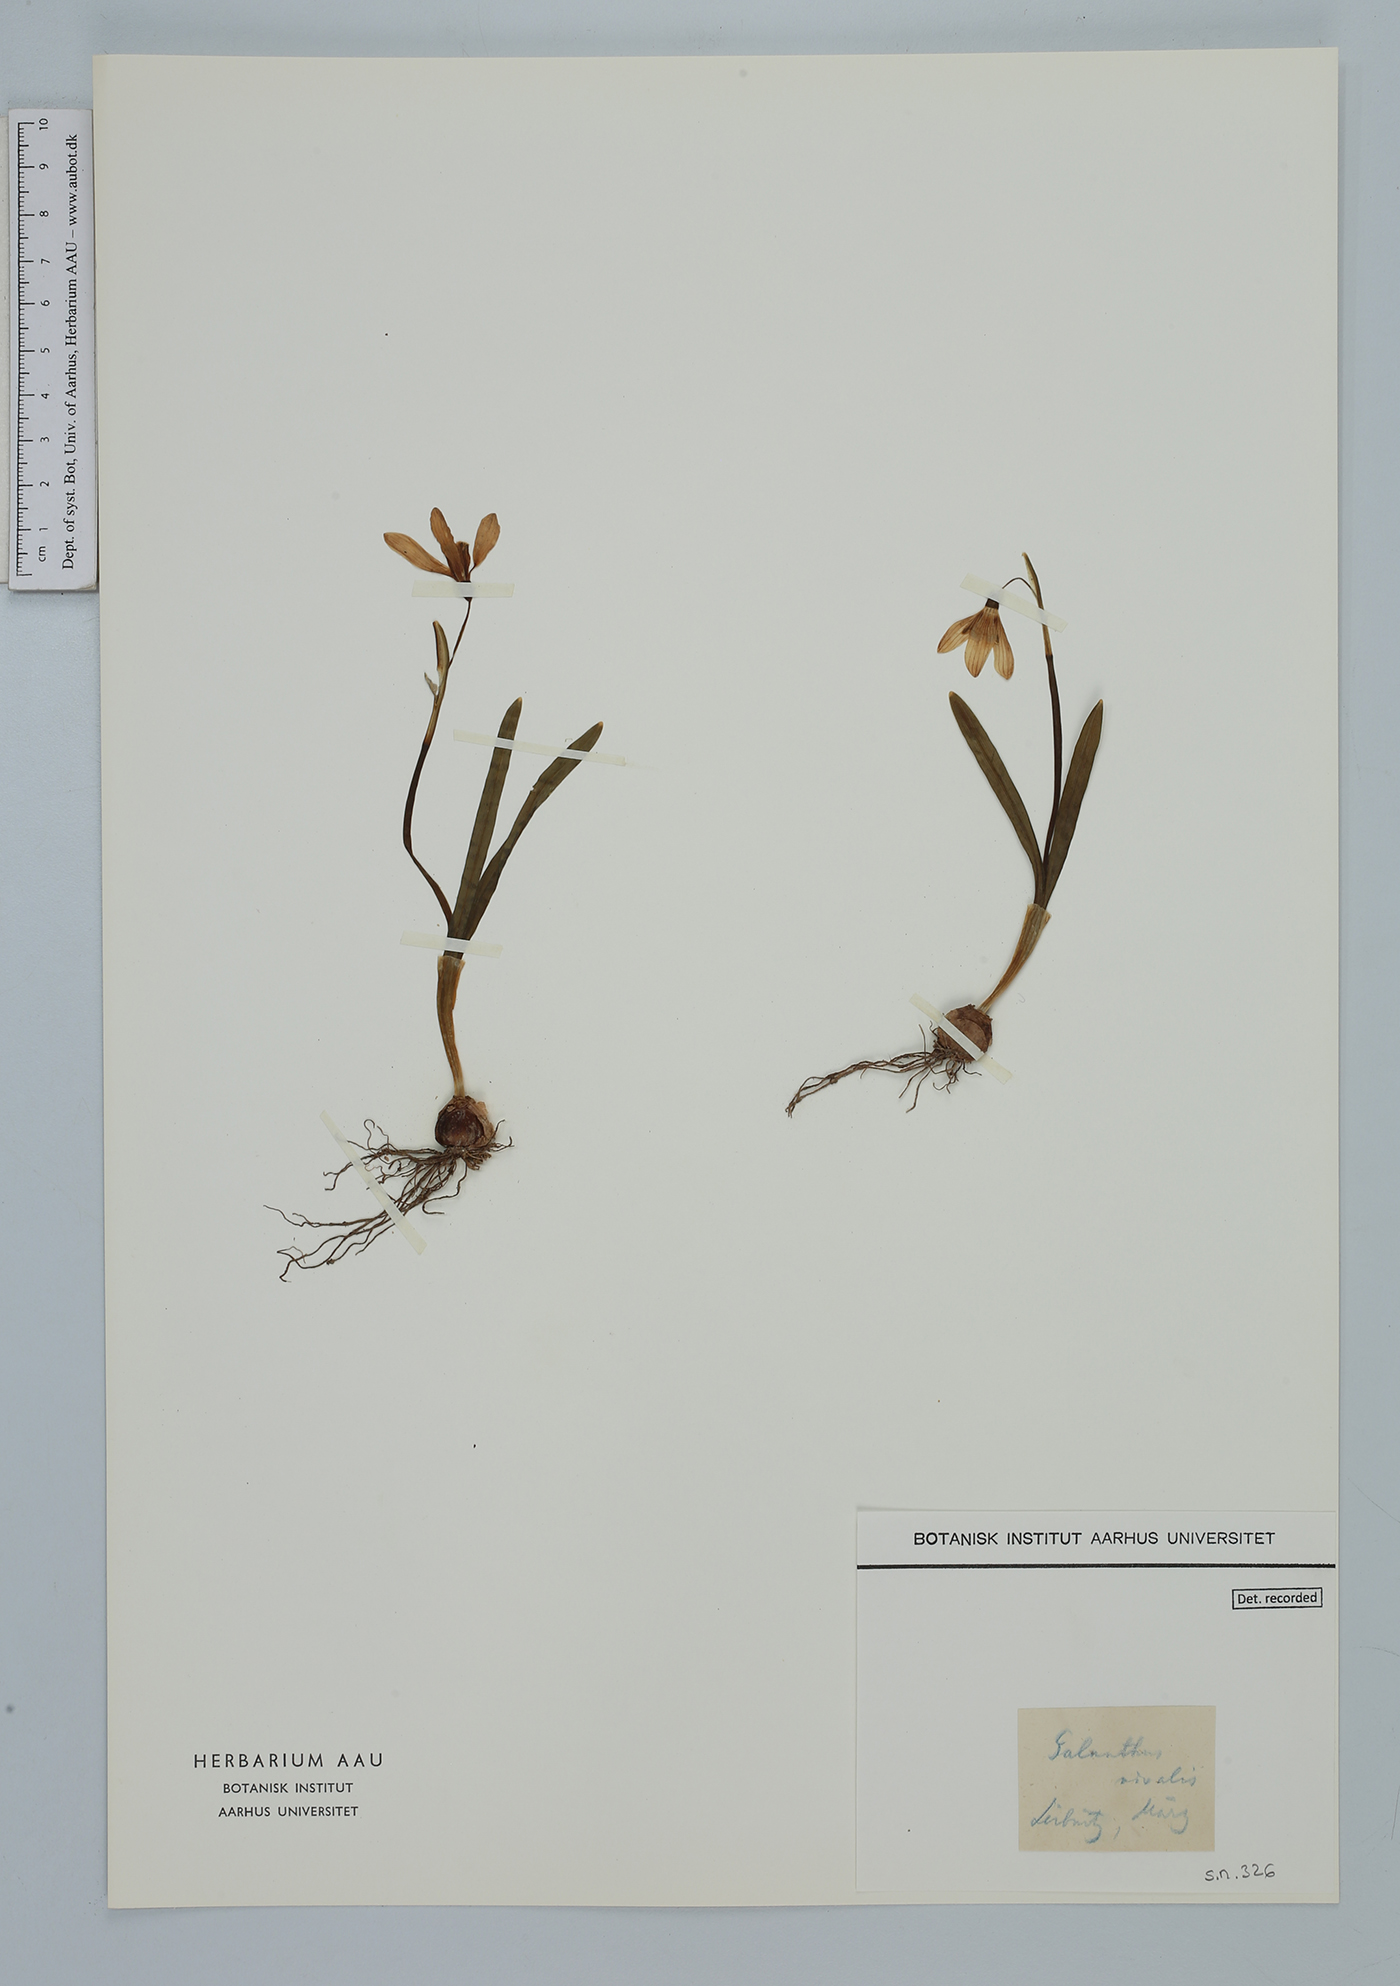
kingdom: Plantae
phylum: Tracheophyta
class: Liliopsida
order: Asparagales
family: Amaryllidaceae
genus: Galanthus
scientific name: Galanthus nivalis
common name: Snowdrop
